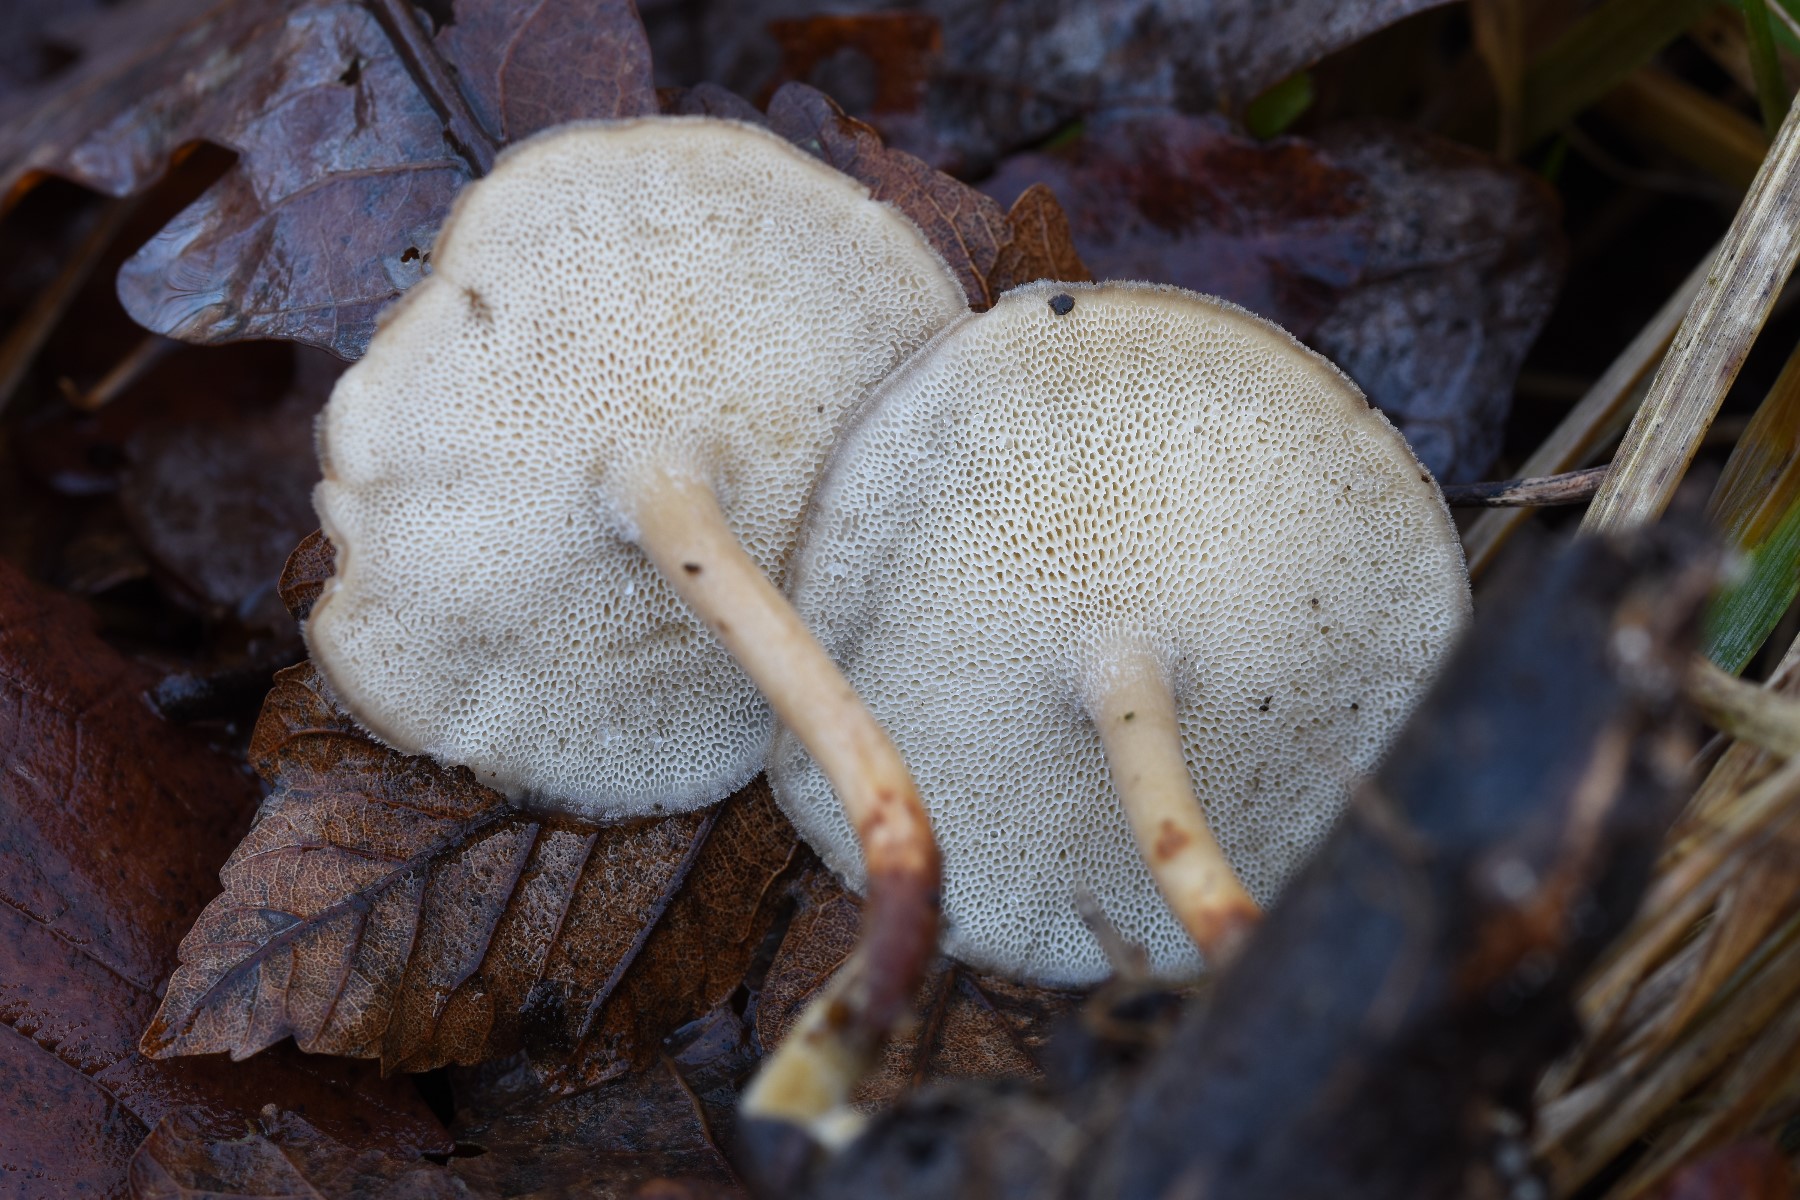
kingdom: Fungi
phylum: Basidiomycota
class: Agaricomycetes
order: Polyporales
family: Polyporaceae
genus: Lentinus
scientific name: Lentinus brumalis
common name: vinter-stilkporesvamp
